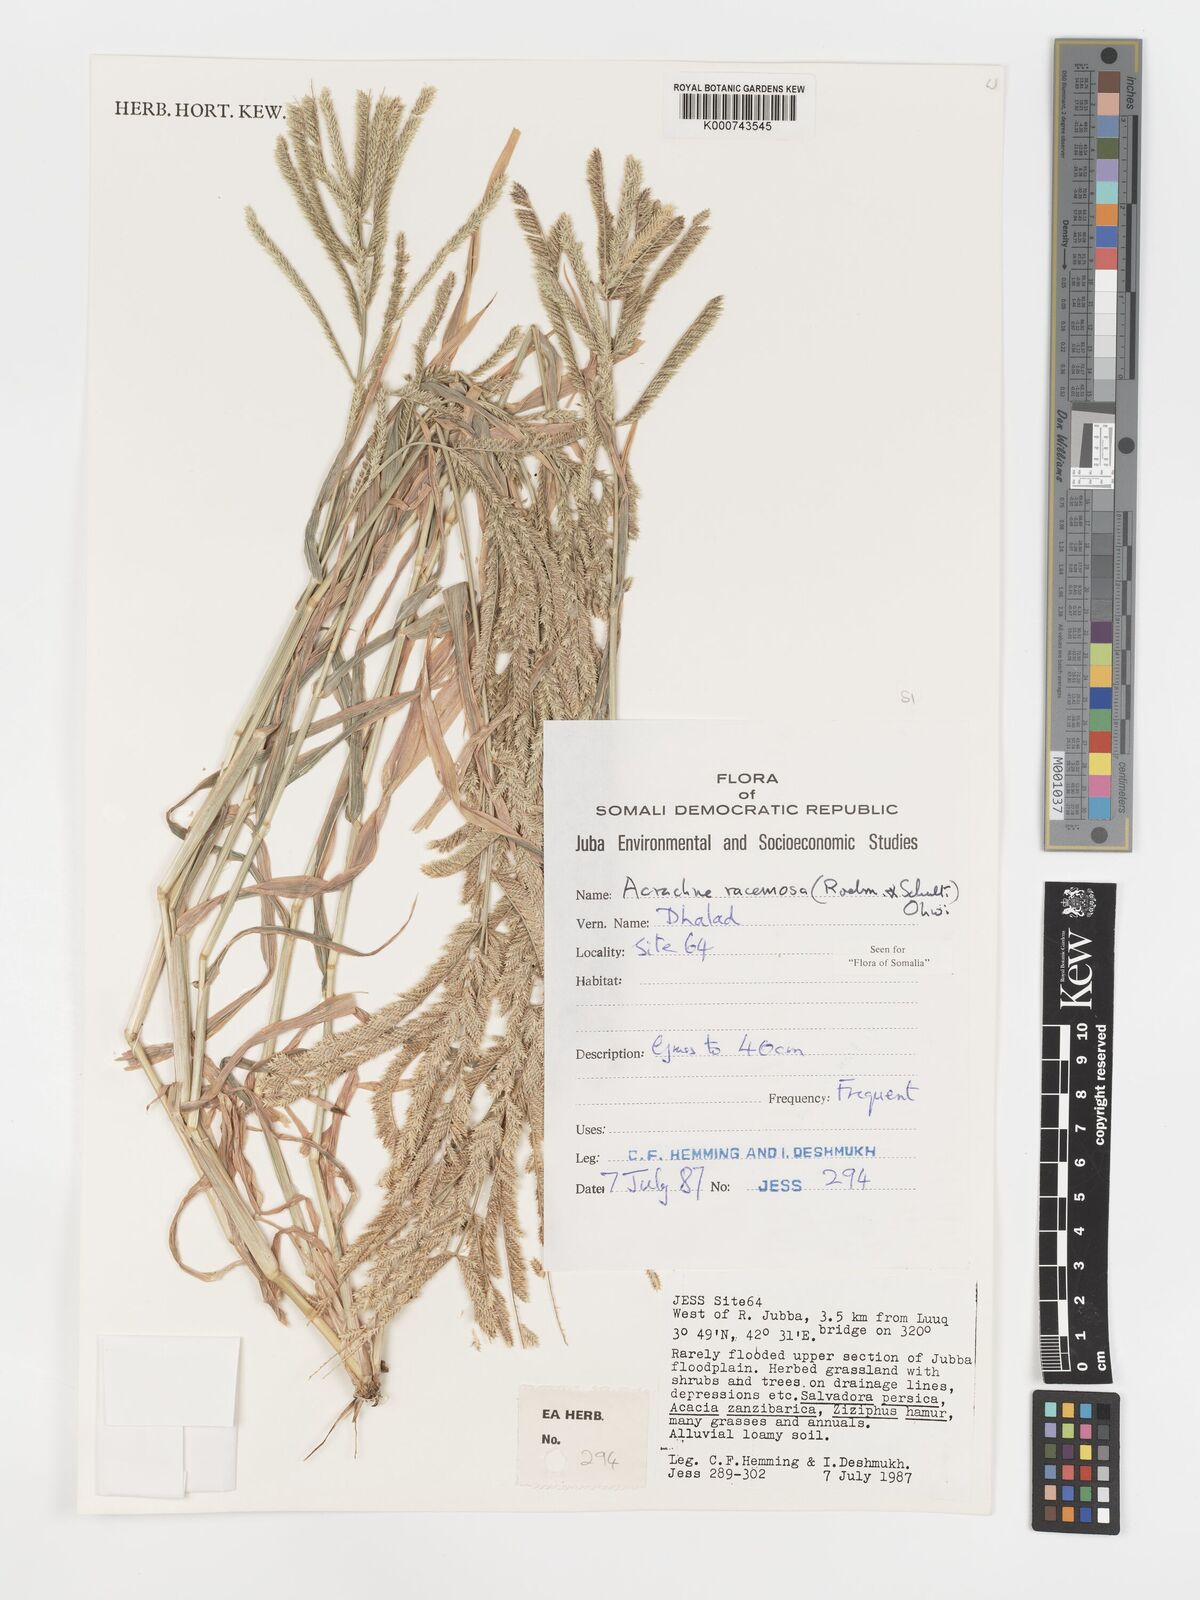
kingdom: Plantae
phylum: Tracheophyta
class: Liliopsida
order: Poales
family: Poaceae
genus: Acrachne
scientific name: Acrachne racemosa
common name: Goosegrass
